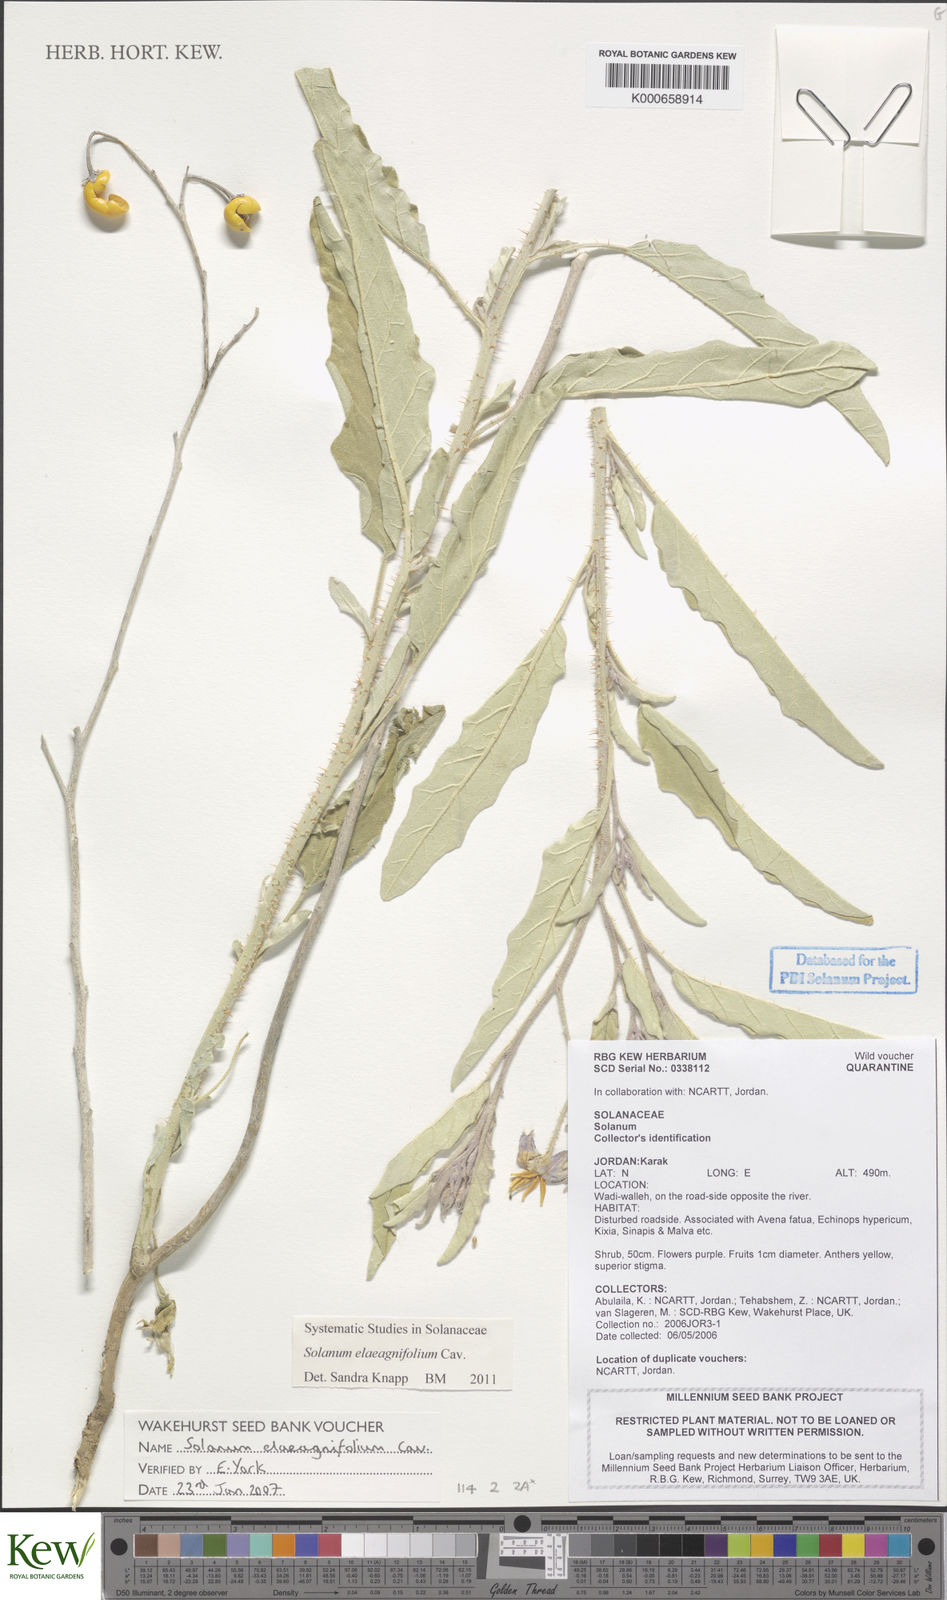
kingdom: Plantae
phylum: Tracheophyta
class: Magnoliopsida
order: Solanales
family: Solanaceae
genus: Solanum
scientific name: Solanum elaeagnifolium
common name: Silverleaf nightshade
